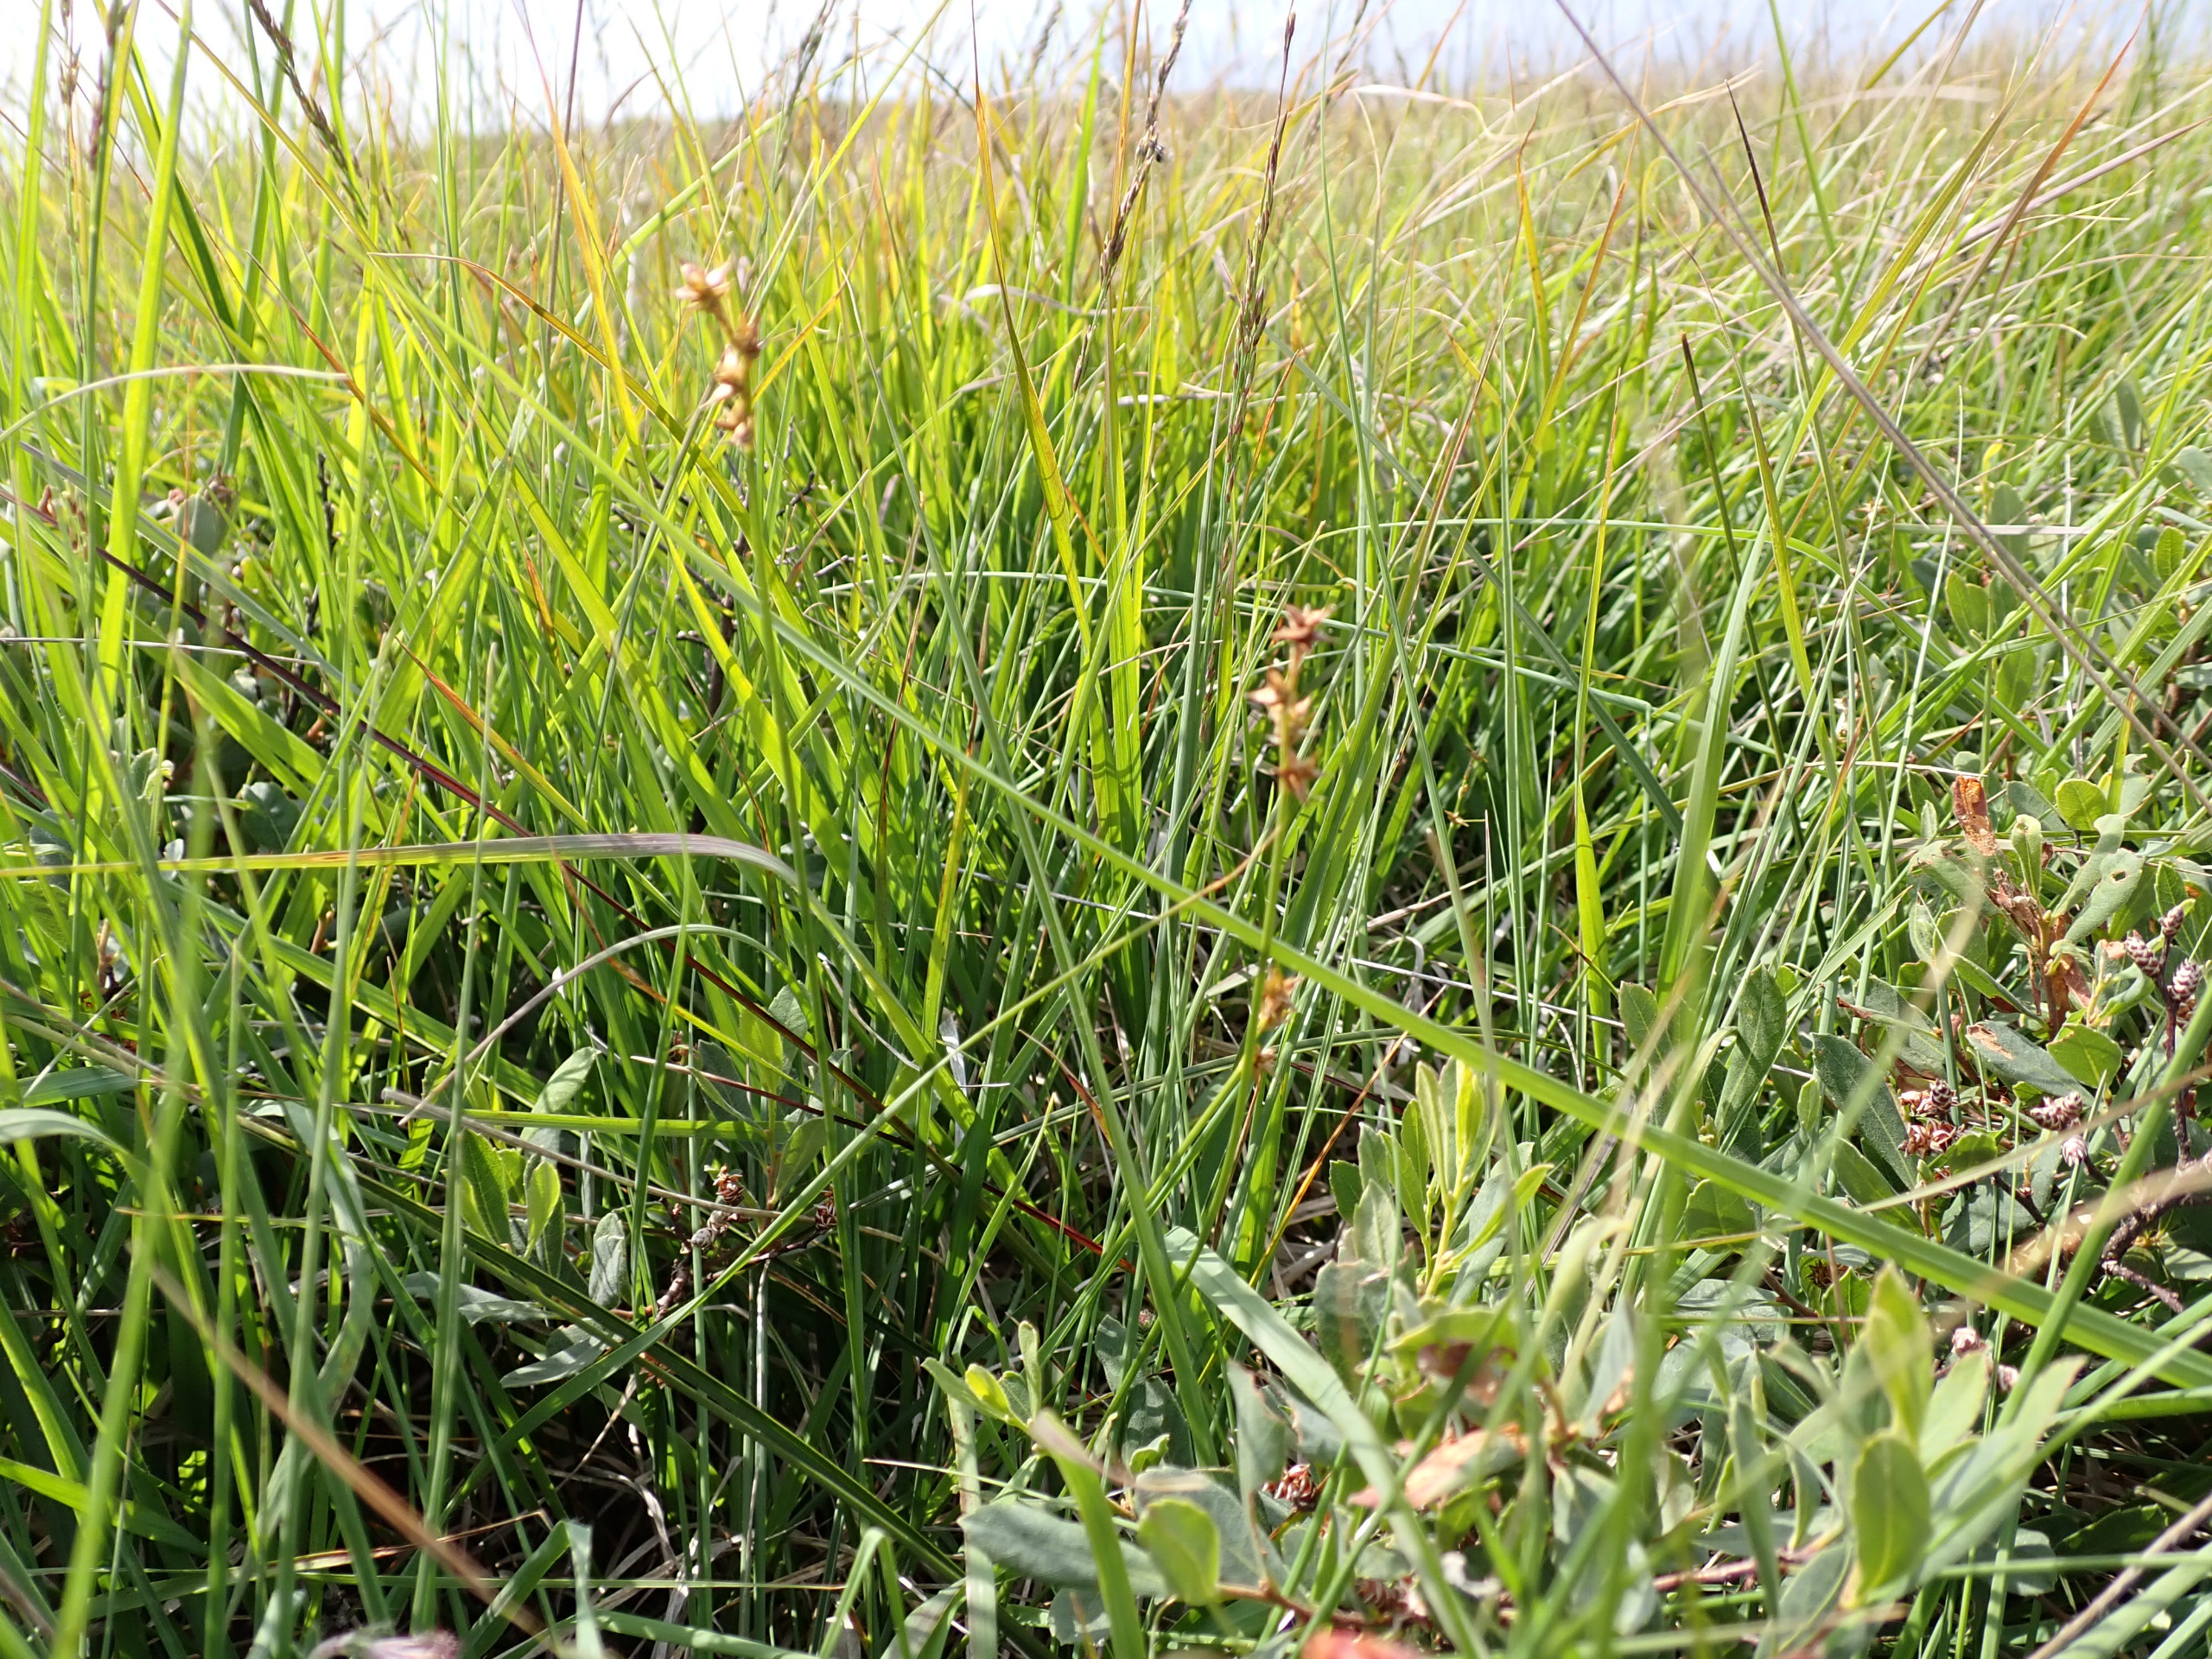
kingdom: Plantae
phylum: Tracheophyta
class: Liliopsida
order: Poales
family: Cyperaceae
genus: Carex
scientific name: Carex echinata
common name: Stjerne-star
